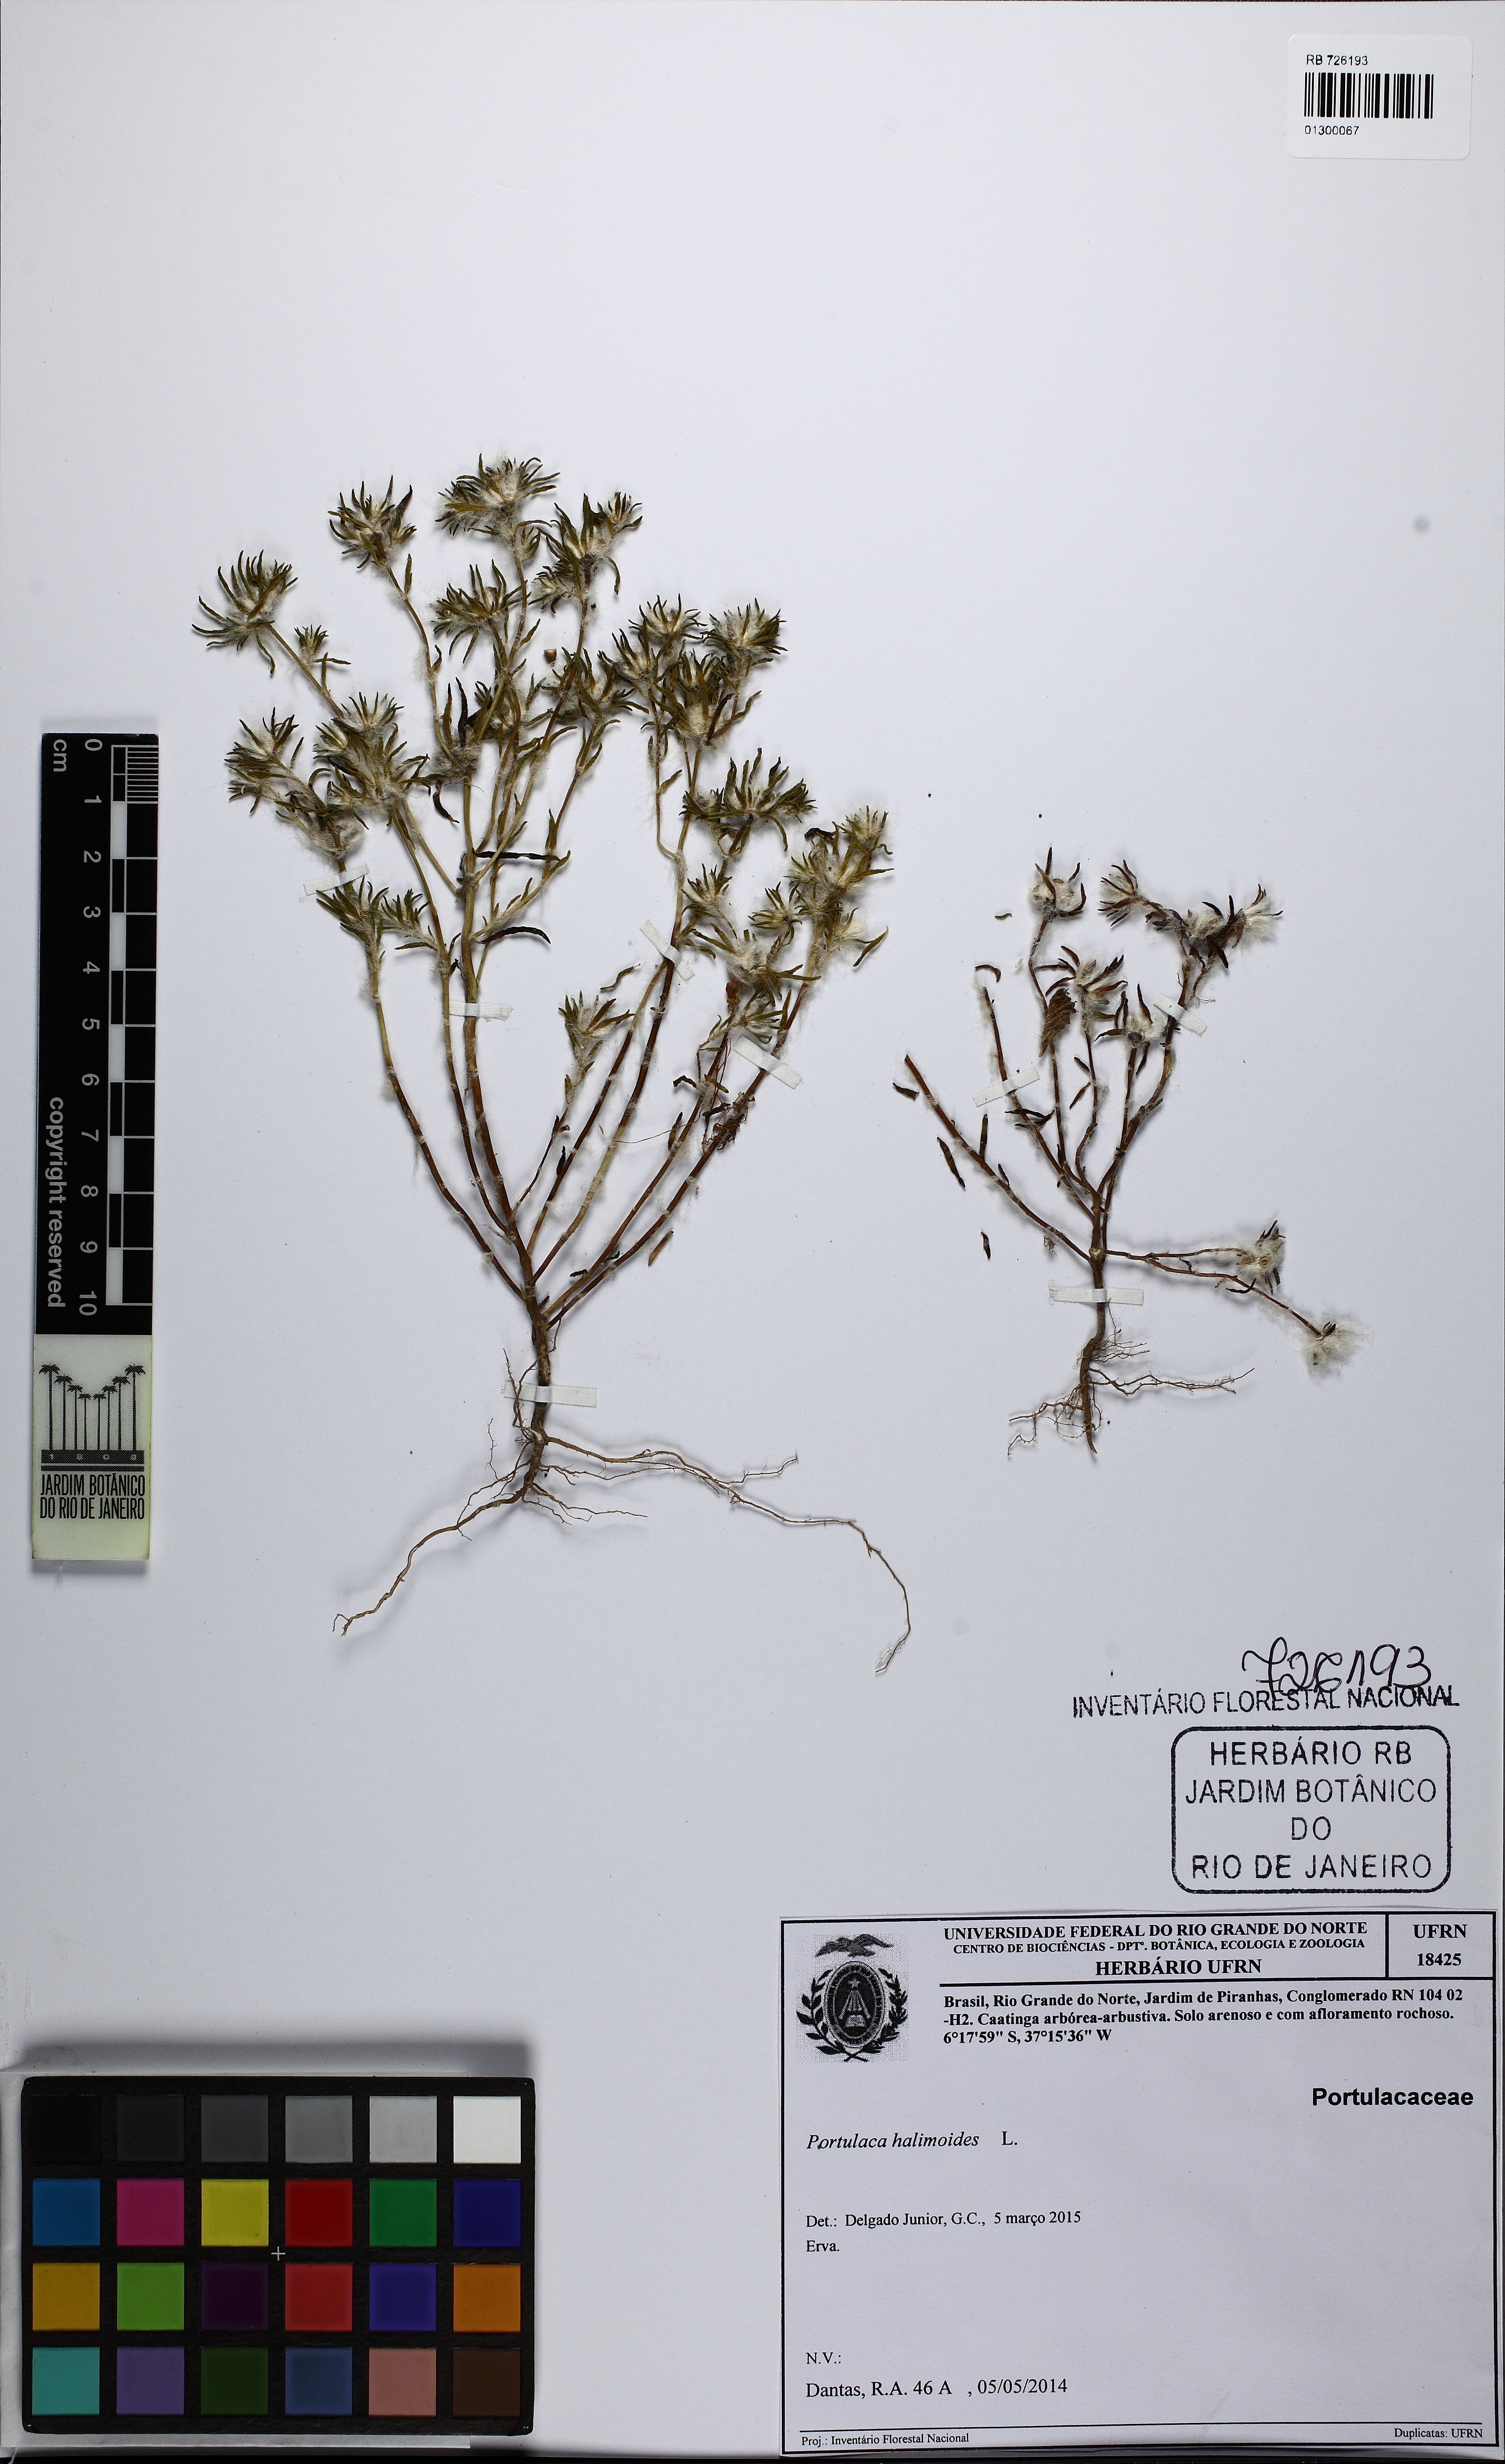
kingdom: Plantae
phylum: Tracheophyta
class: Magnoliopsida
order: Caryophyllales
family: Portulacaceae
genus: Portulaca
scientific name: Portulaca halimoides
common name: Silk cotton purslane
